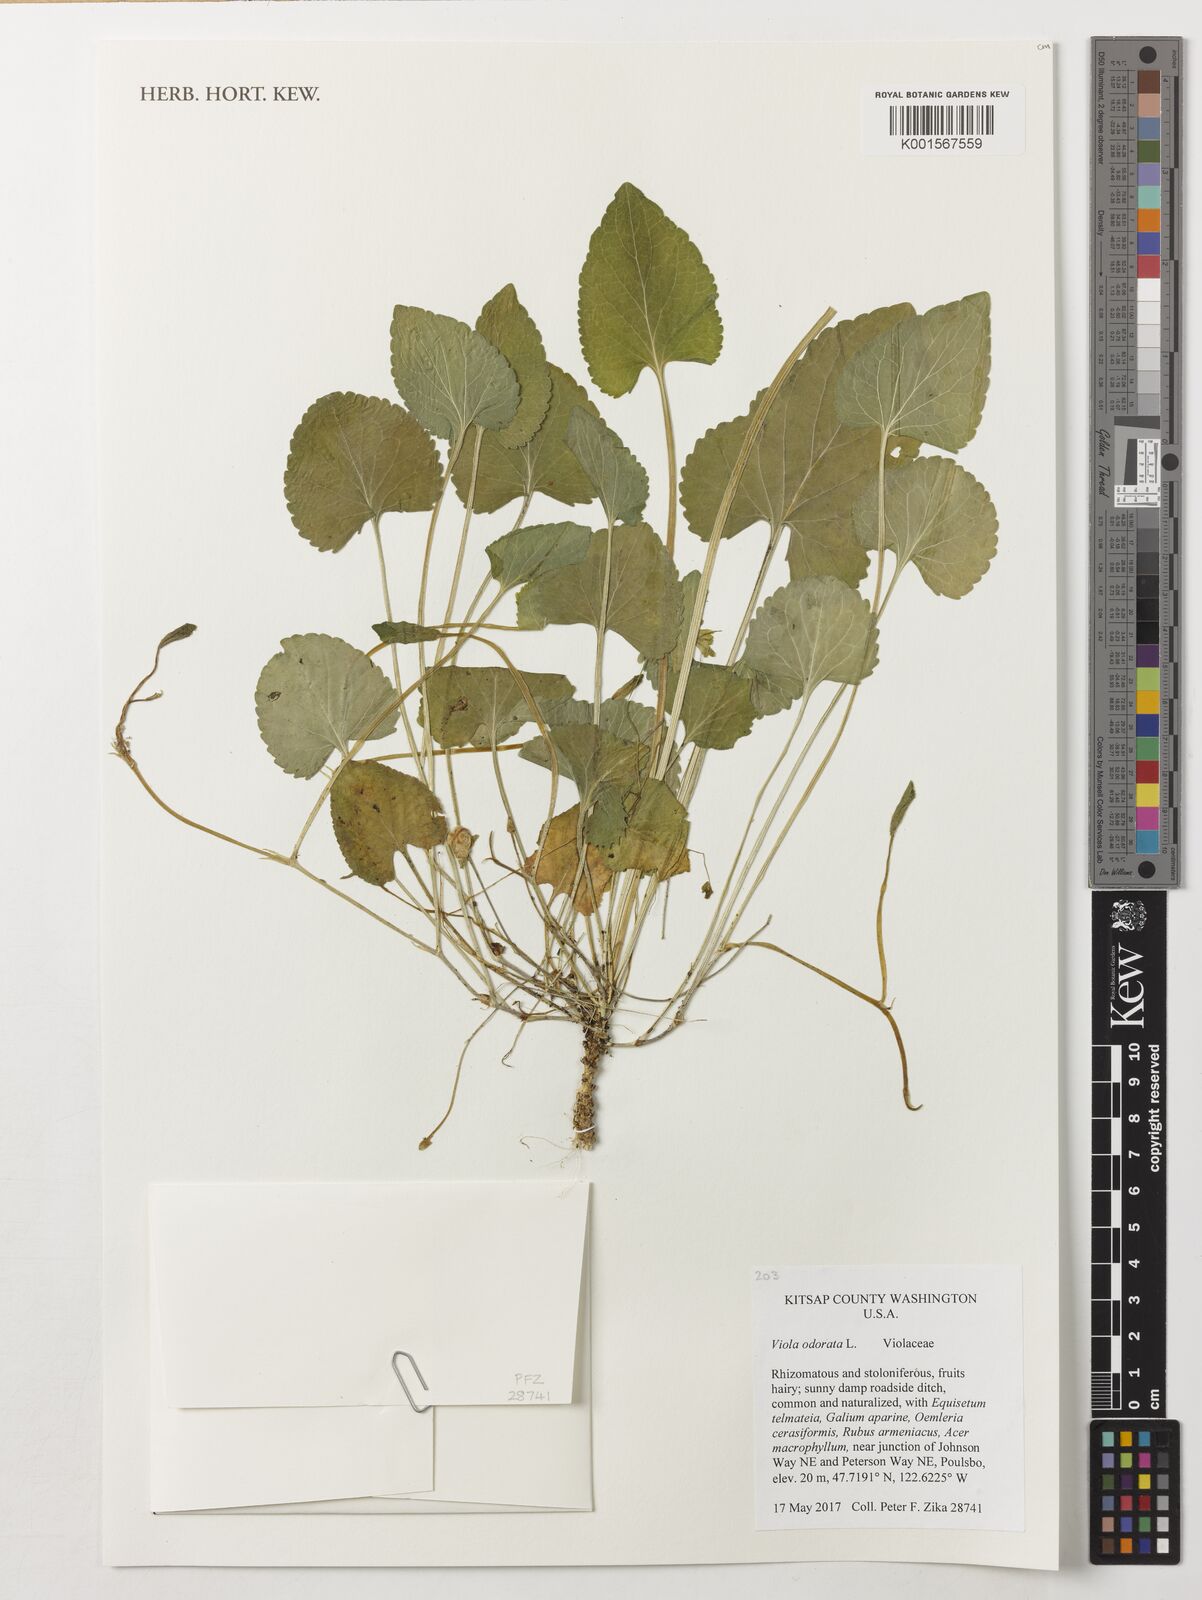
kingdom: Plantae
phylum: Tracheophyta
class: Magnoliopsida
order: Malpighiales
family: Violaceae
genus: Viola
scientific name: Viola odorata
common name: Sweet violet
